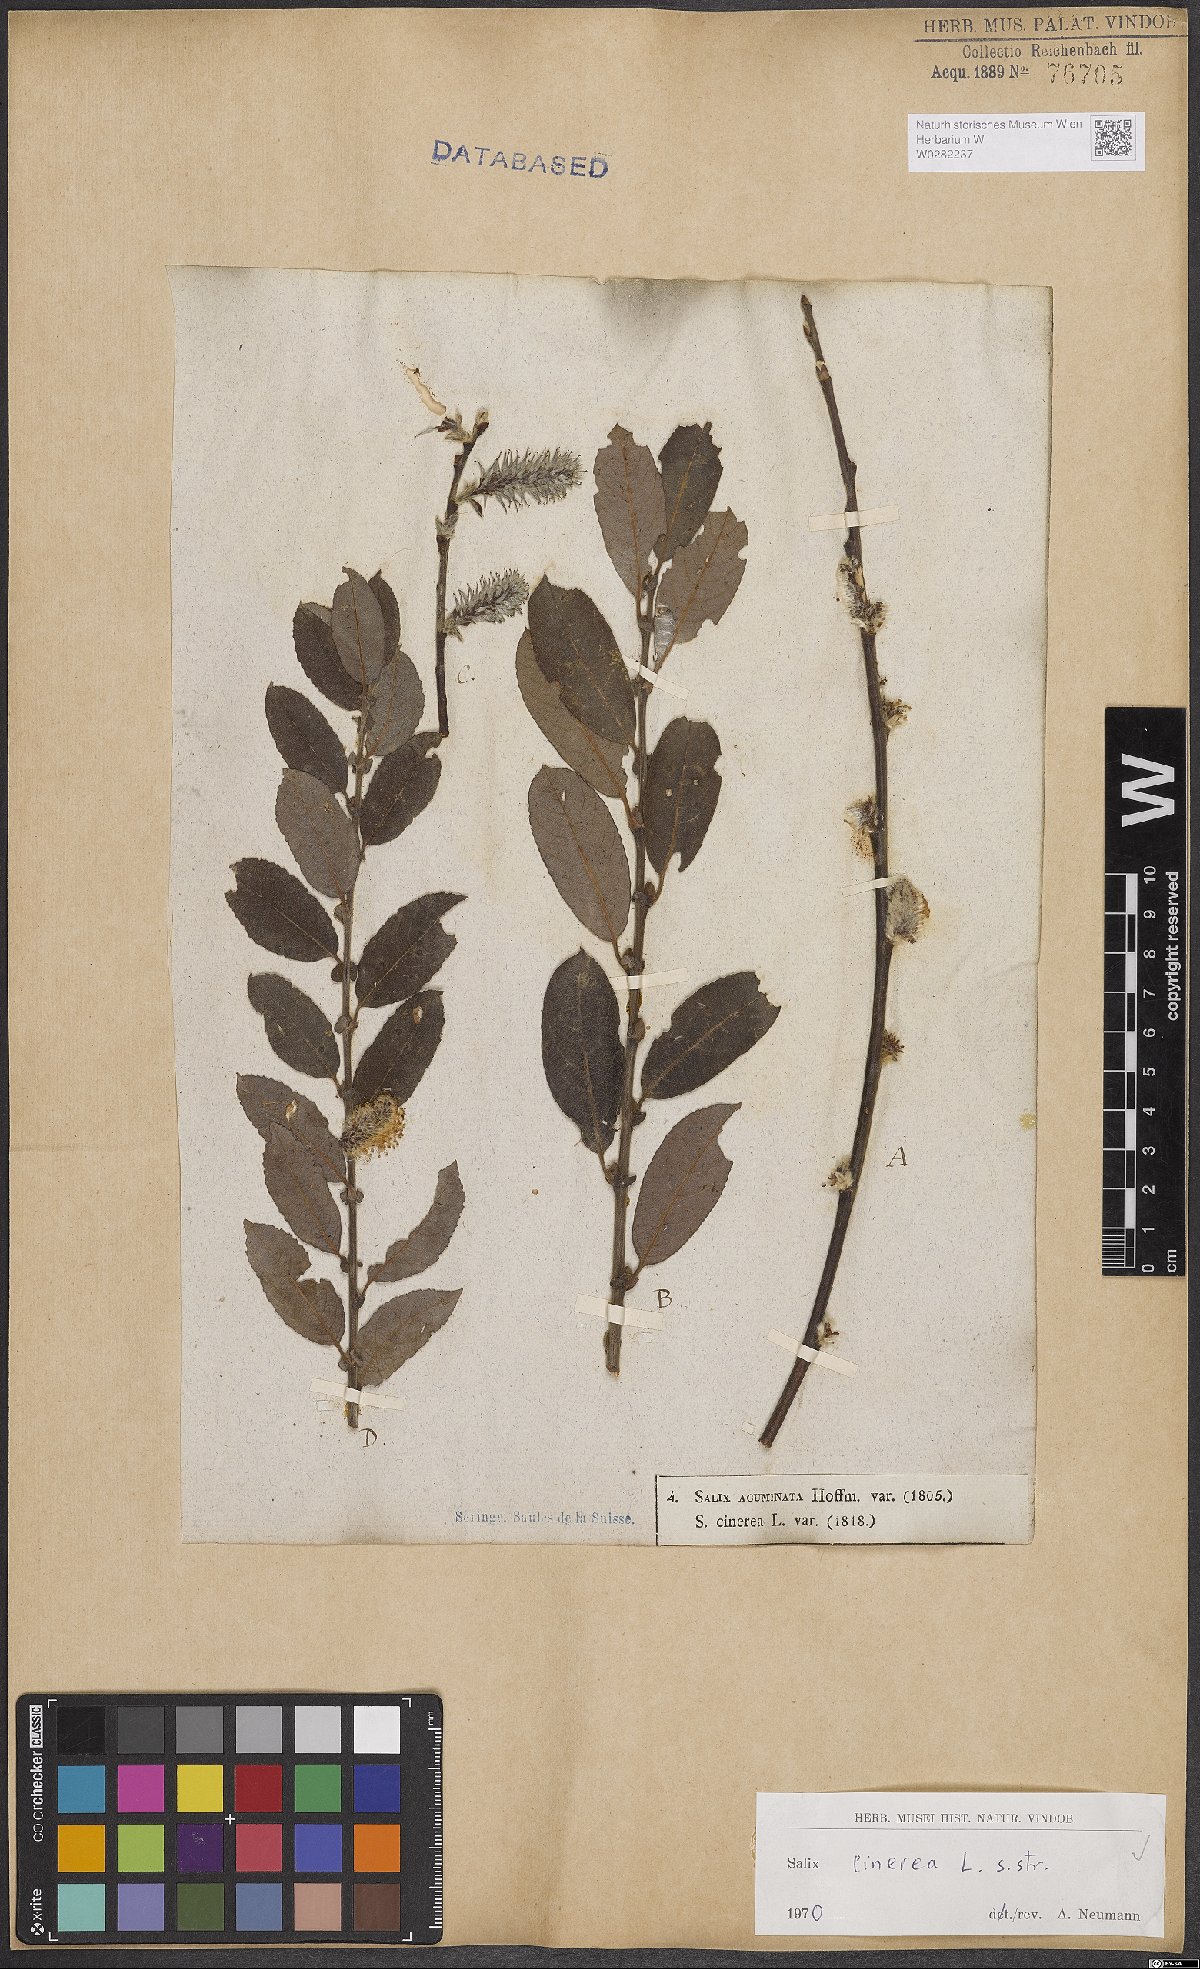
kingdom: Plantae
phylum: Tracheophyta
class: Magnoliopsida
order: Malpighiales
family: Salicaceae
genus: Salix
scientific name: Salix cinerea
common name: Common sallow
